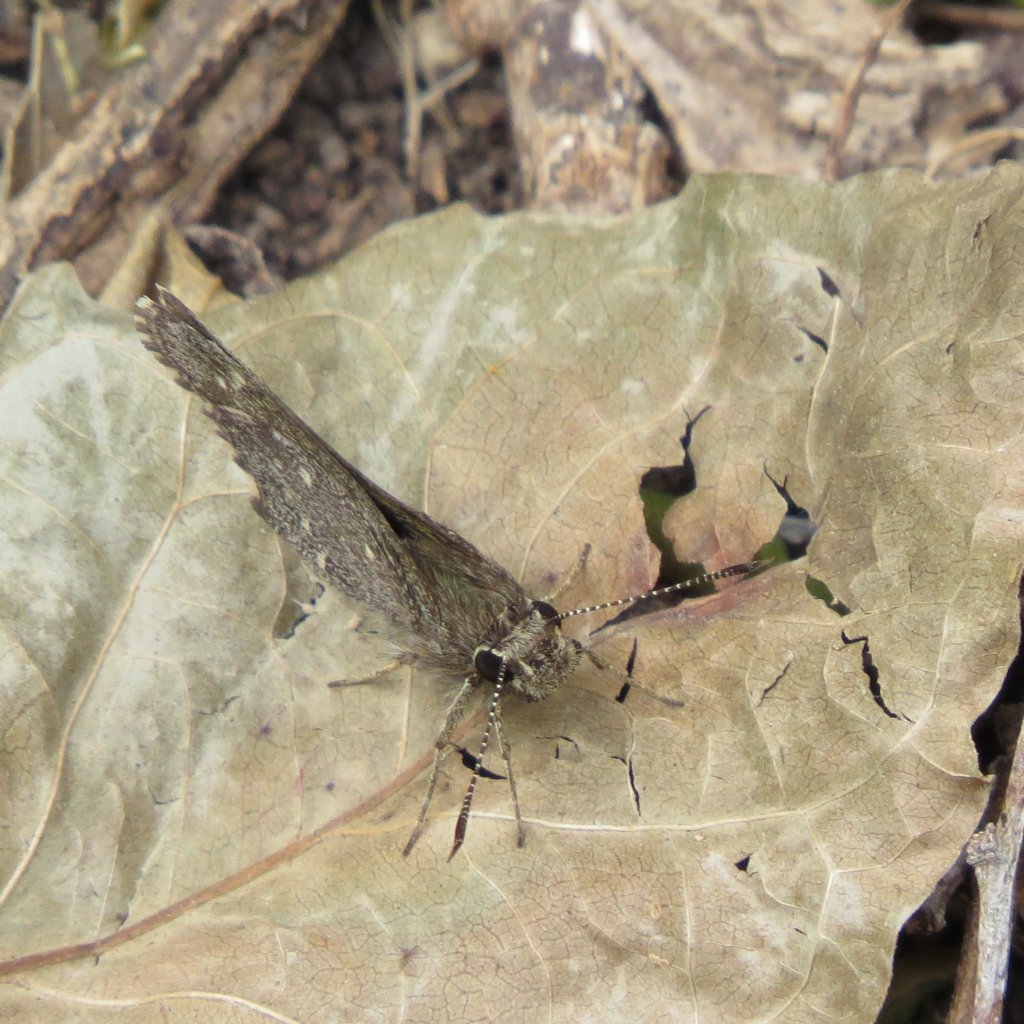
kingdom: Animalia
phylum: Arthropoda
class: Insecta
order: Lepidoptera
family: Hesperiidae
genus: Mastor
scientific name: Mastor celia
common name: Celia's Roadside-Skipper
